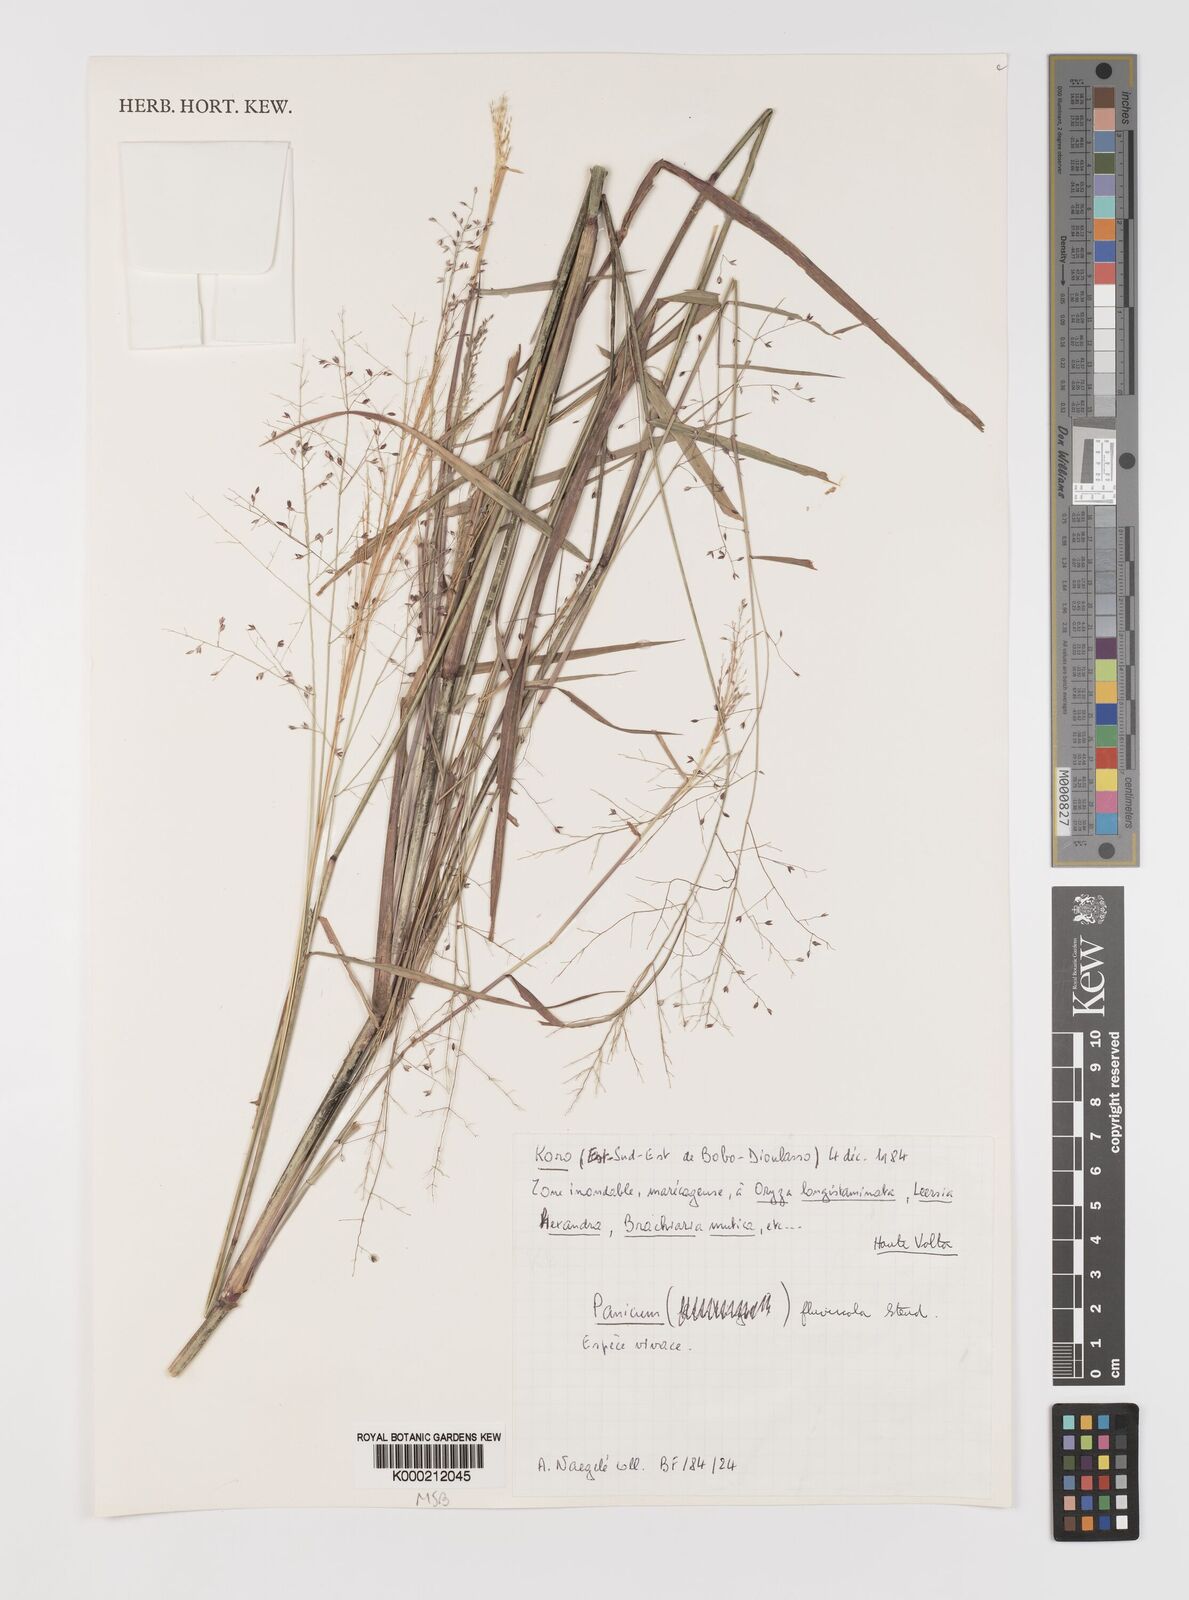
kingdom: Plantae
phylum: Tracheophyta
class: Liliopsida
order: Poales
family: Poaceae
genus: Panicum
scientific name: Panicum fluviicola
